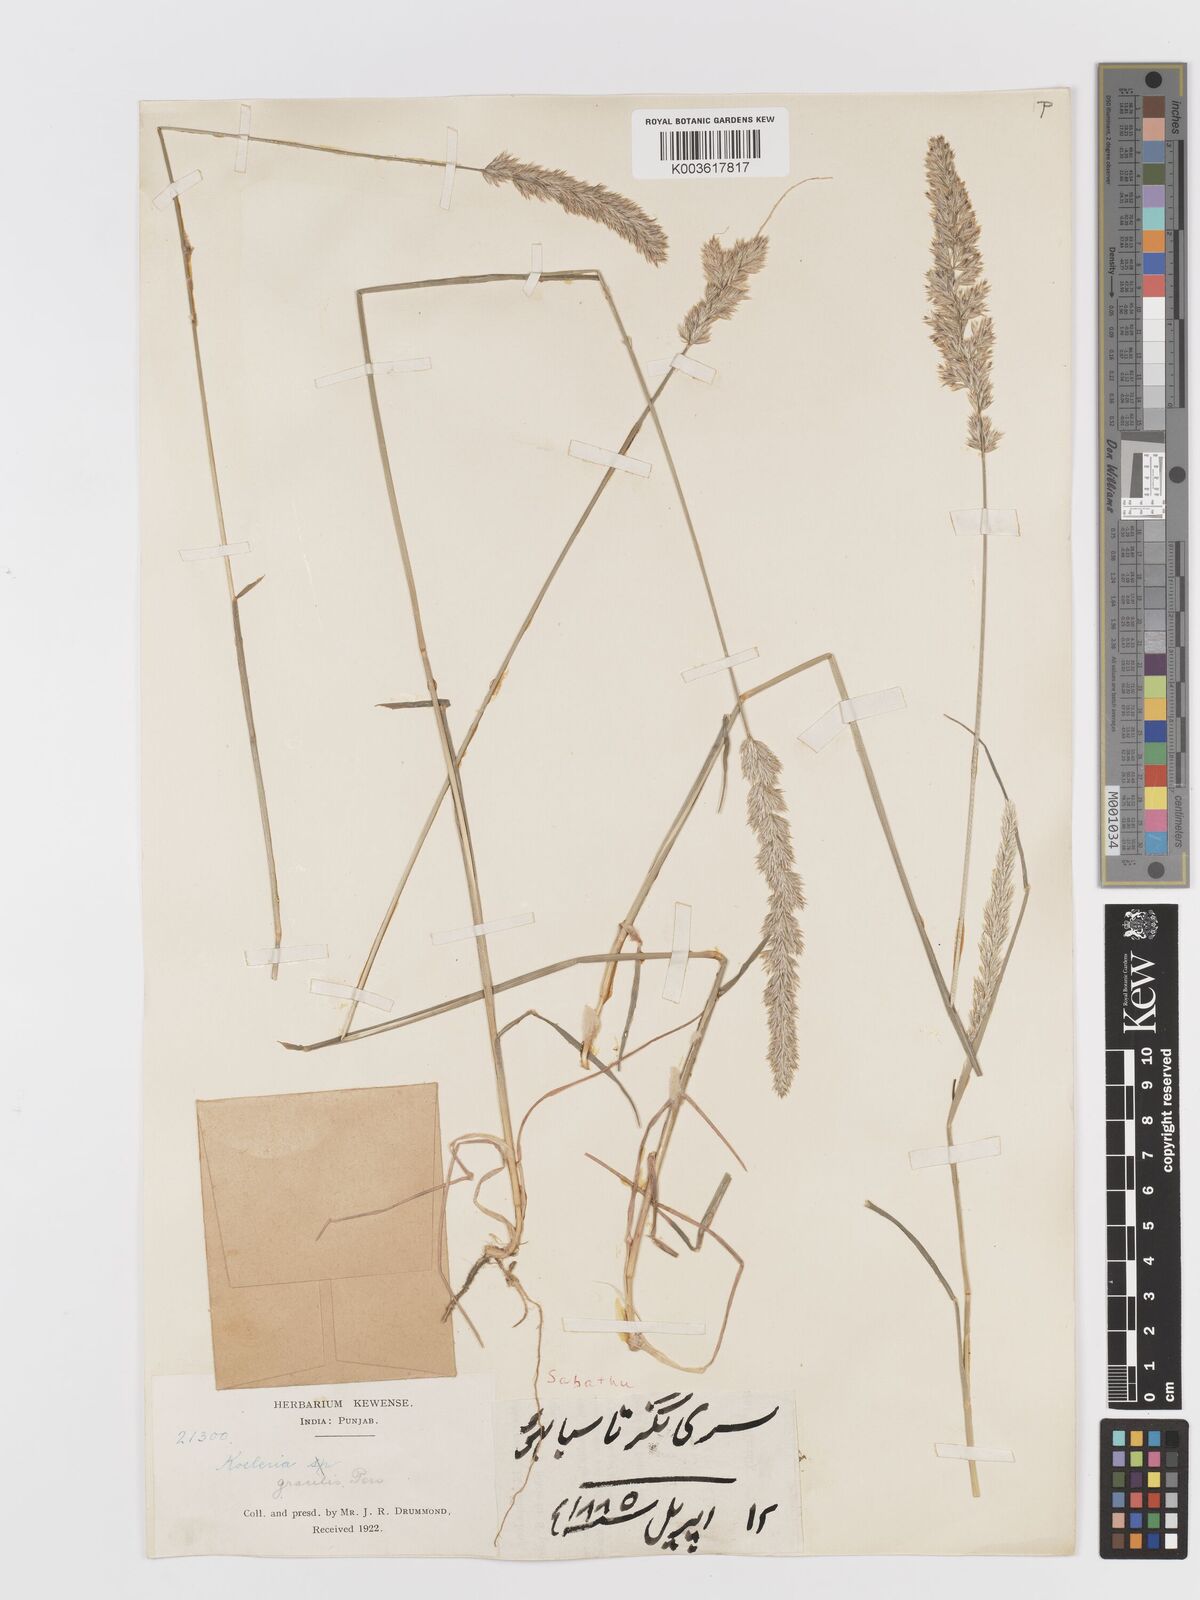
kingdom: Plantae
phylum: Tracheophyta
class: Liliopsida
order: Poales
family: Poaceae
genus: Koeleria
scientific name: Koeleria macrantha
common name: Crested hair-grass
